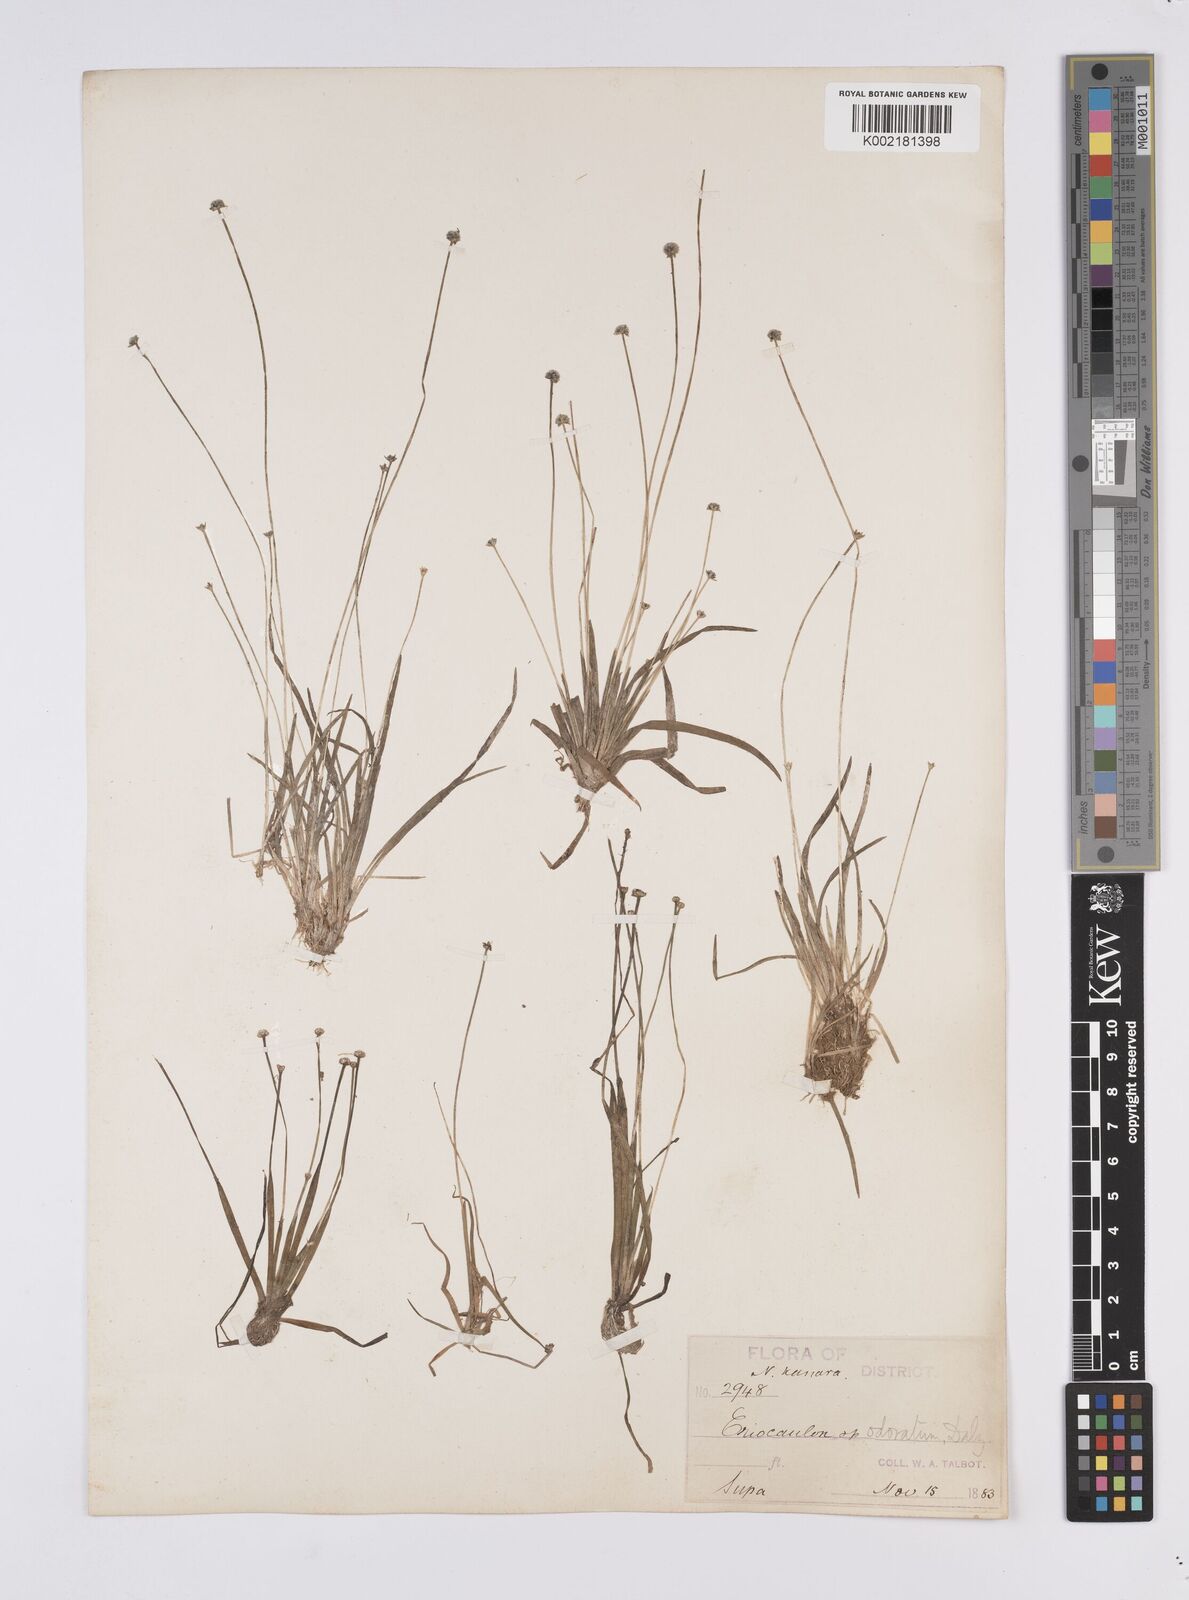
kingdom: Plantae
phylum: Tracheophyta
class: Liliopsida
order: Poales
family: Eriocaulaceae
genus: Eriocaulon
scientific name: Eriocaulon odoratum
